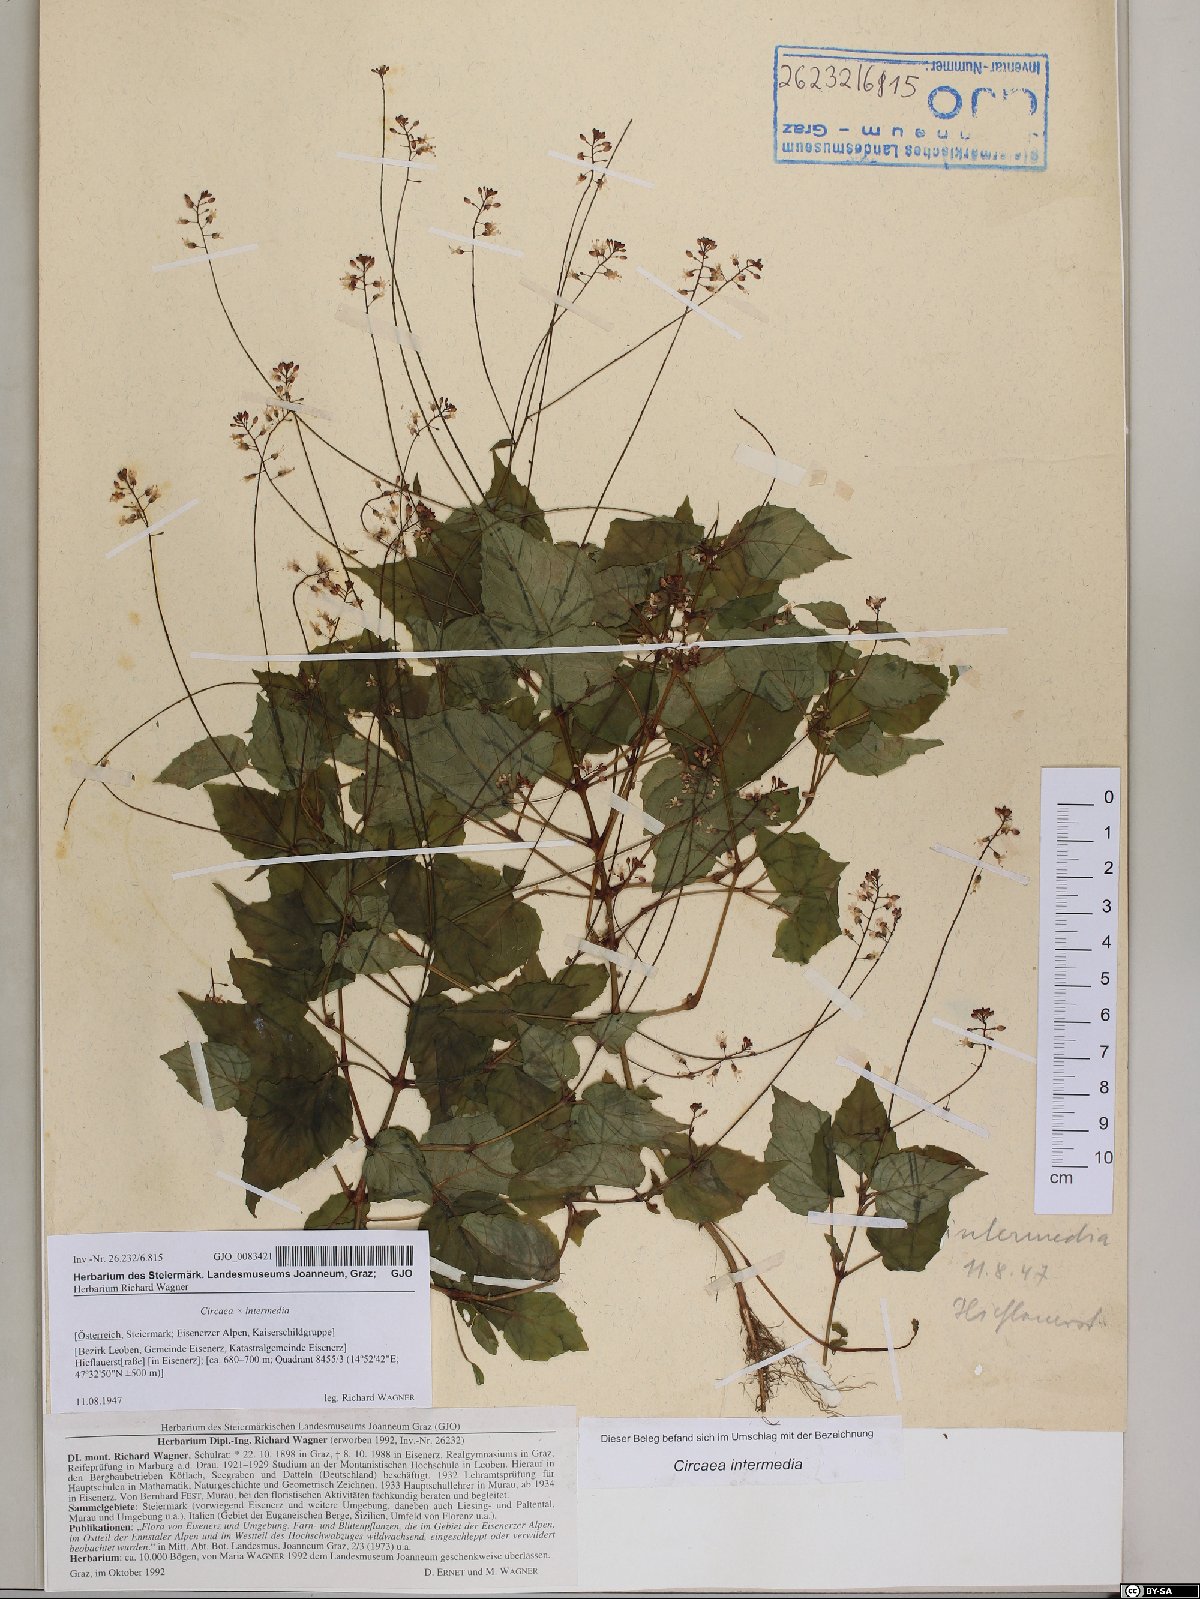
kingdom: Plantae
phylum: Tracheophyta
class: Magnoliopsida
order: Myrtales
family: Onagraceae
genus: Circaea
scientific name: Circaea intermedia
